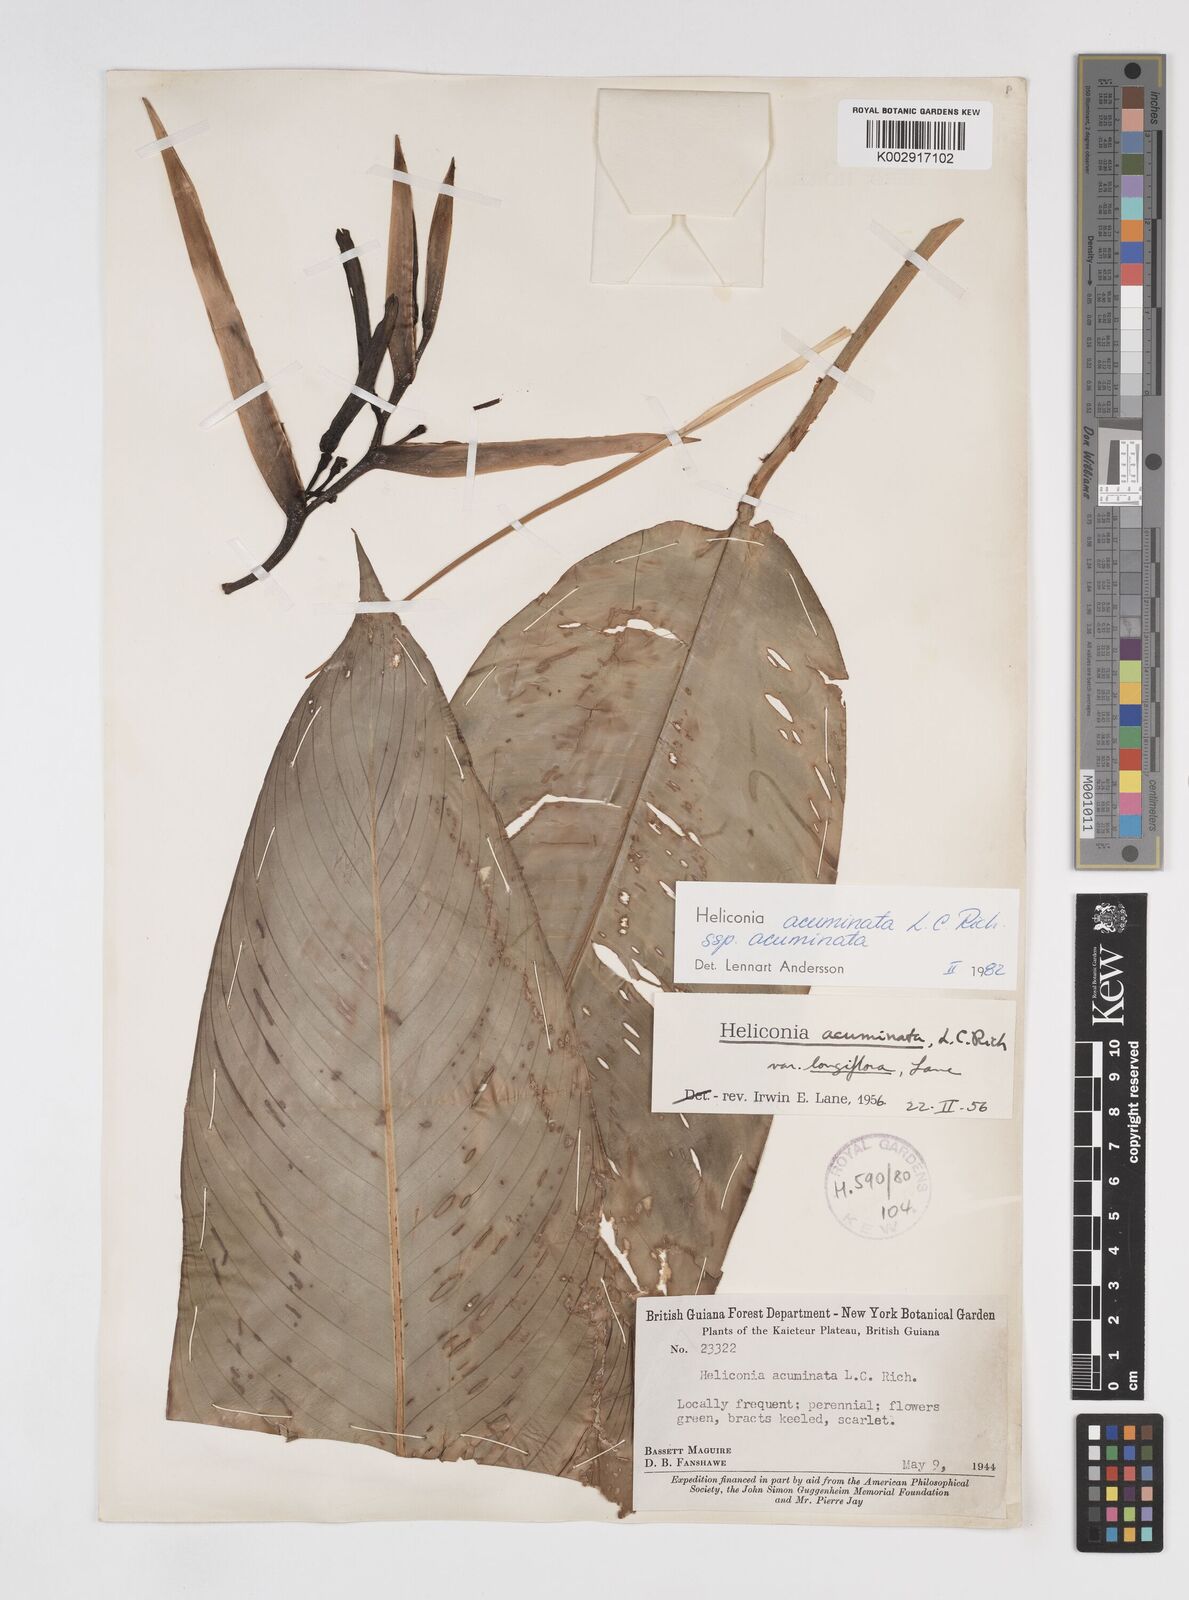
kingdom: Plantae
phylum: Tracheophyta
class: Liliopsida
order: Zingiberales
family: Heliconiaceae
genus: Heliconia
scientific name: Heliconia acuminata
